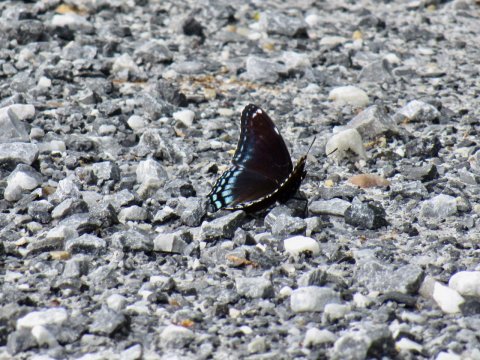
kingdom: Animalia
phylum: Arthropoda
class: Insecta
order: Lepidoptera
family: Nymphalidae
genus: Limenitis
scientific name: Limenitis arthemis
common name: Red-spotted Admiral
